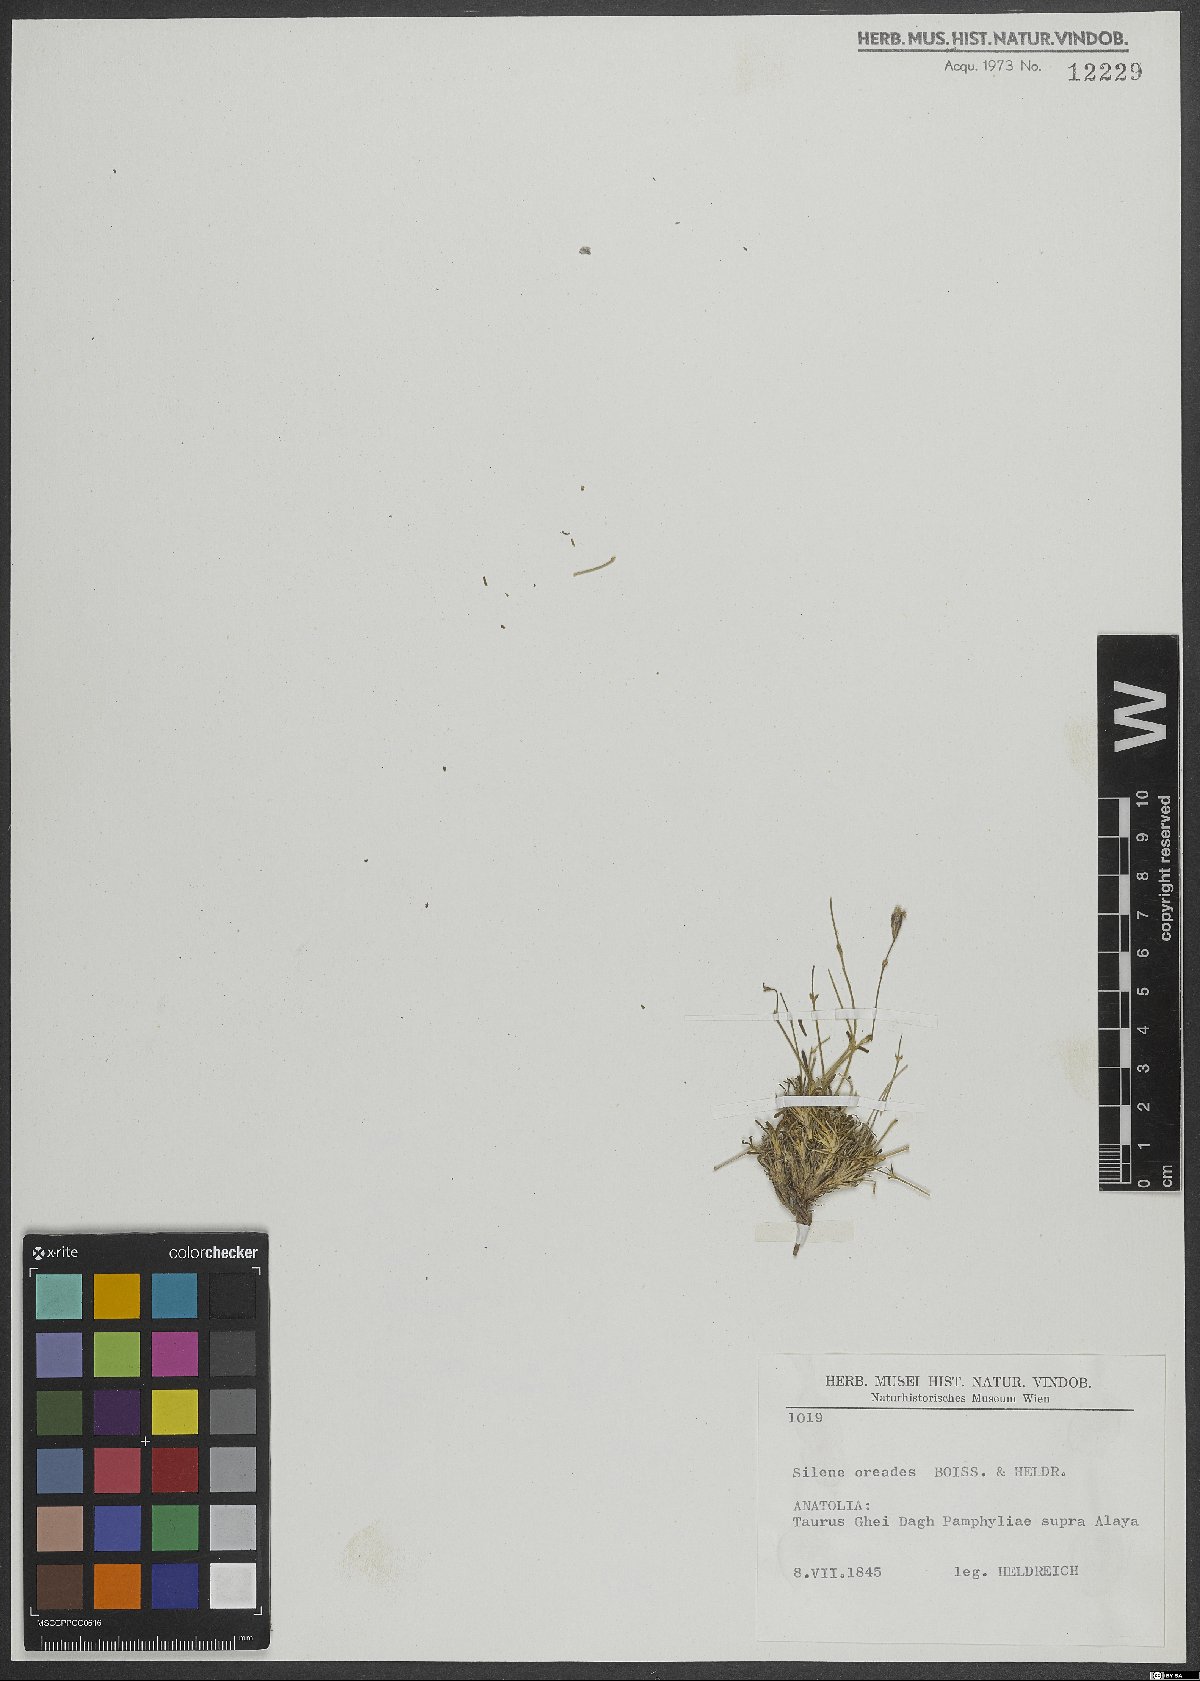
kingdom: Plantae
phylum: Tracheophyta
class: Magnoliopsida
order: Caryophyllales
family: Caryophyllaceae
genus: Silene
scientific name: Silene oreades
